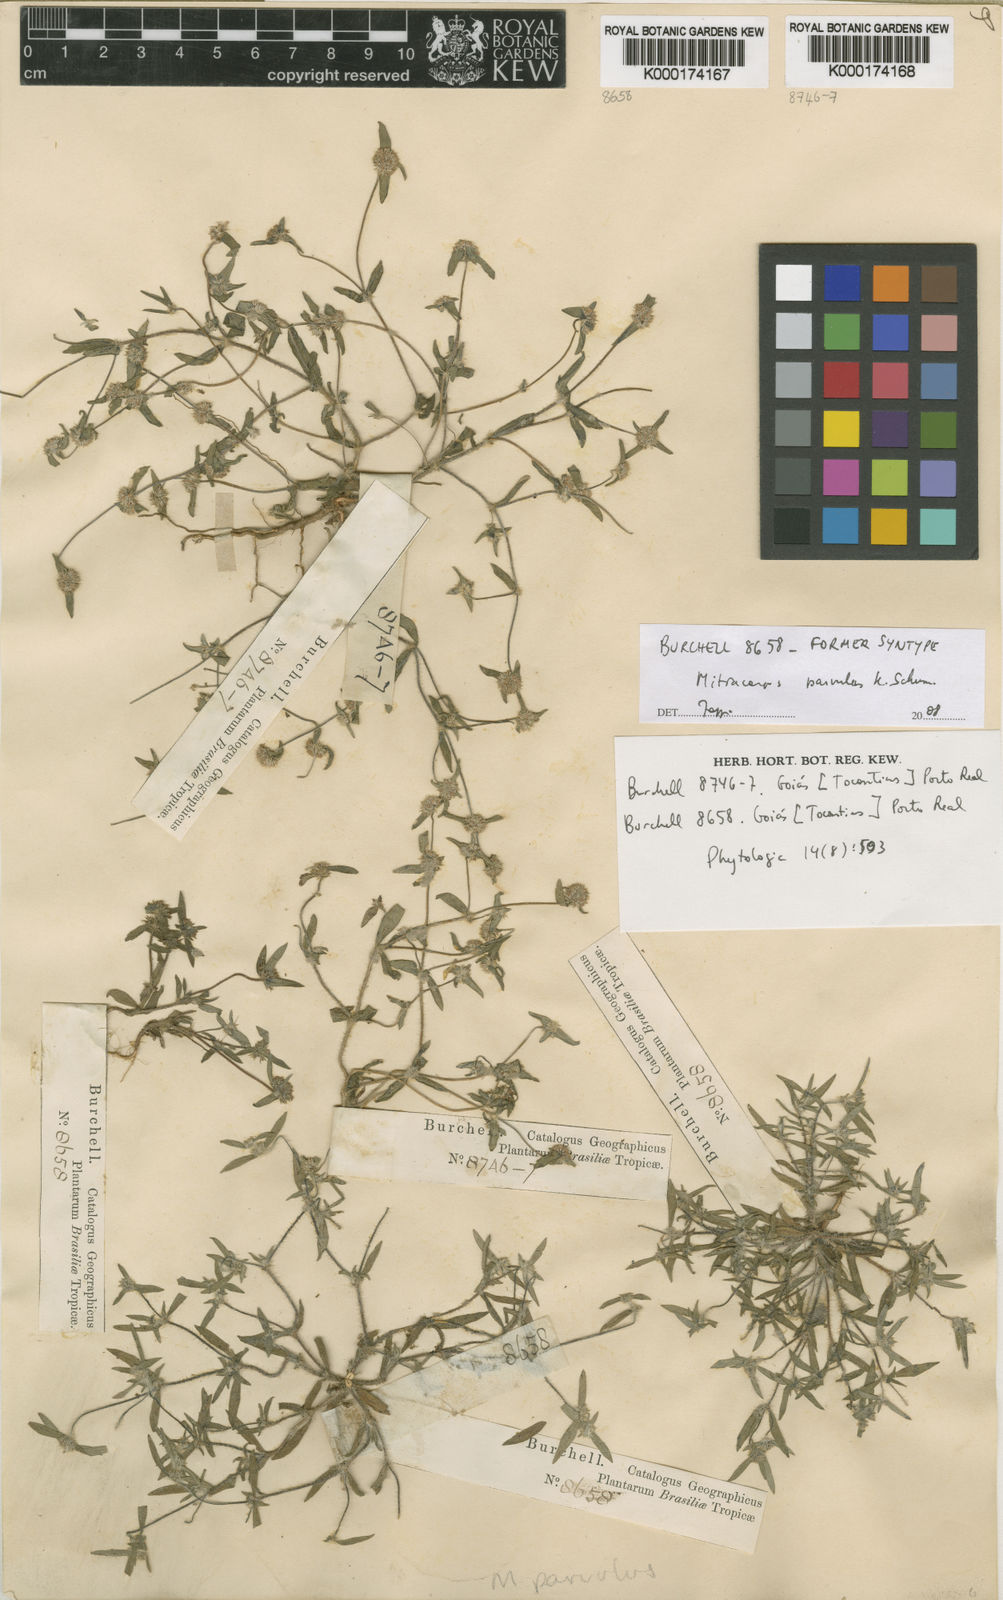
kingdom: Plantae
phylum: Tracheophyta
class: Magnoliopsida
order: Gentianales
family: Rubiaceae
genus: Mitracarpus
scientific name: Mitracarpus parvulus
